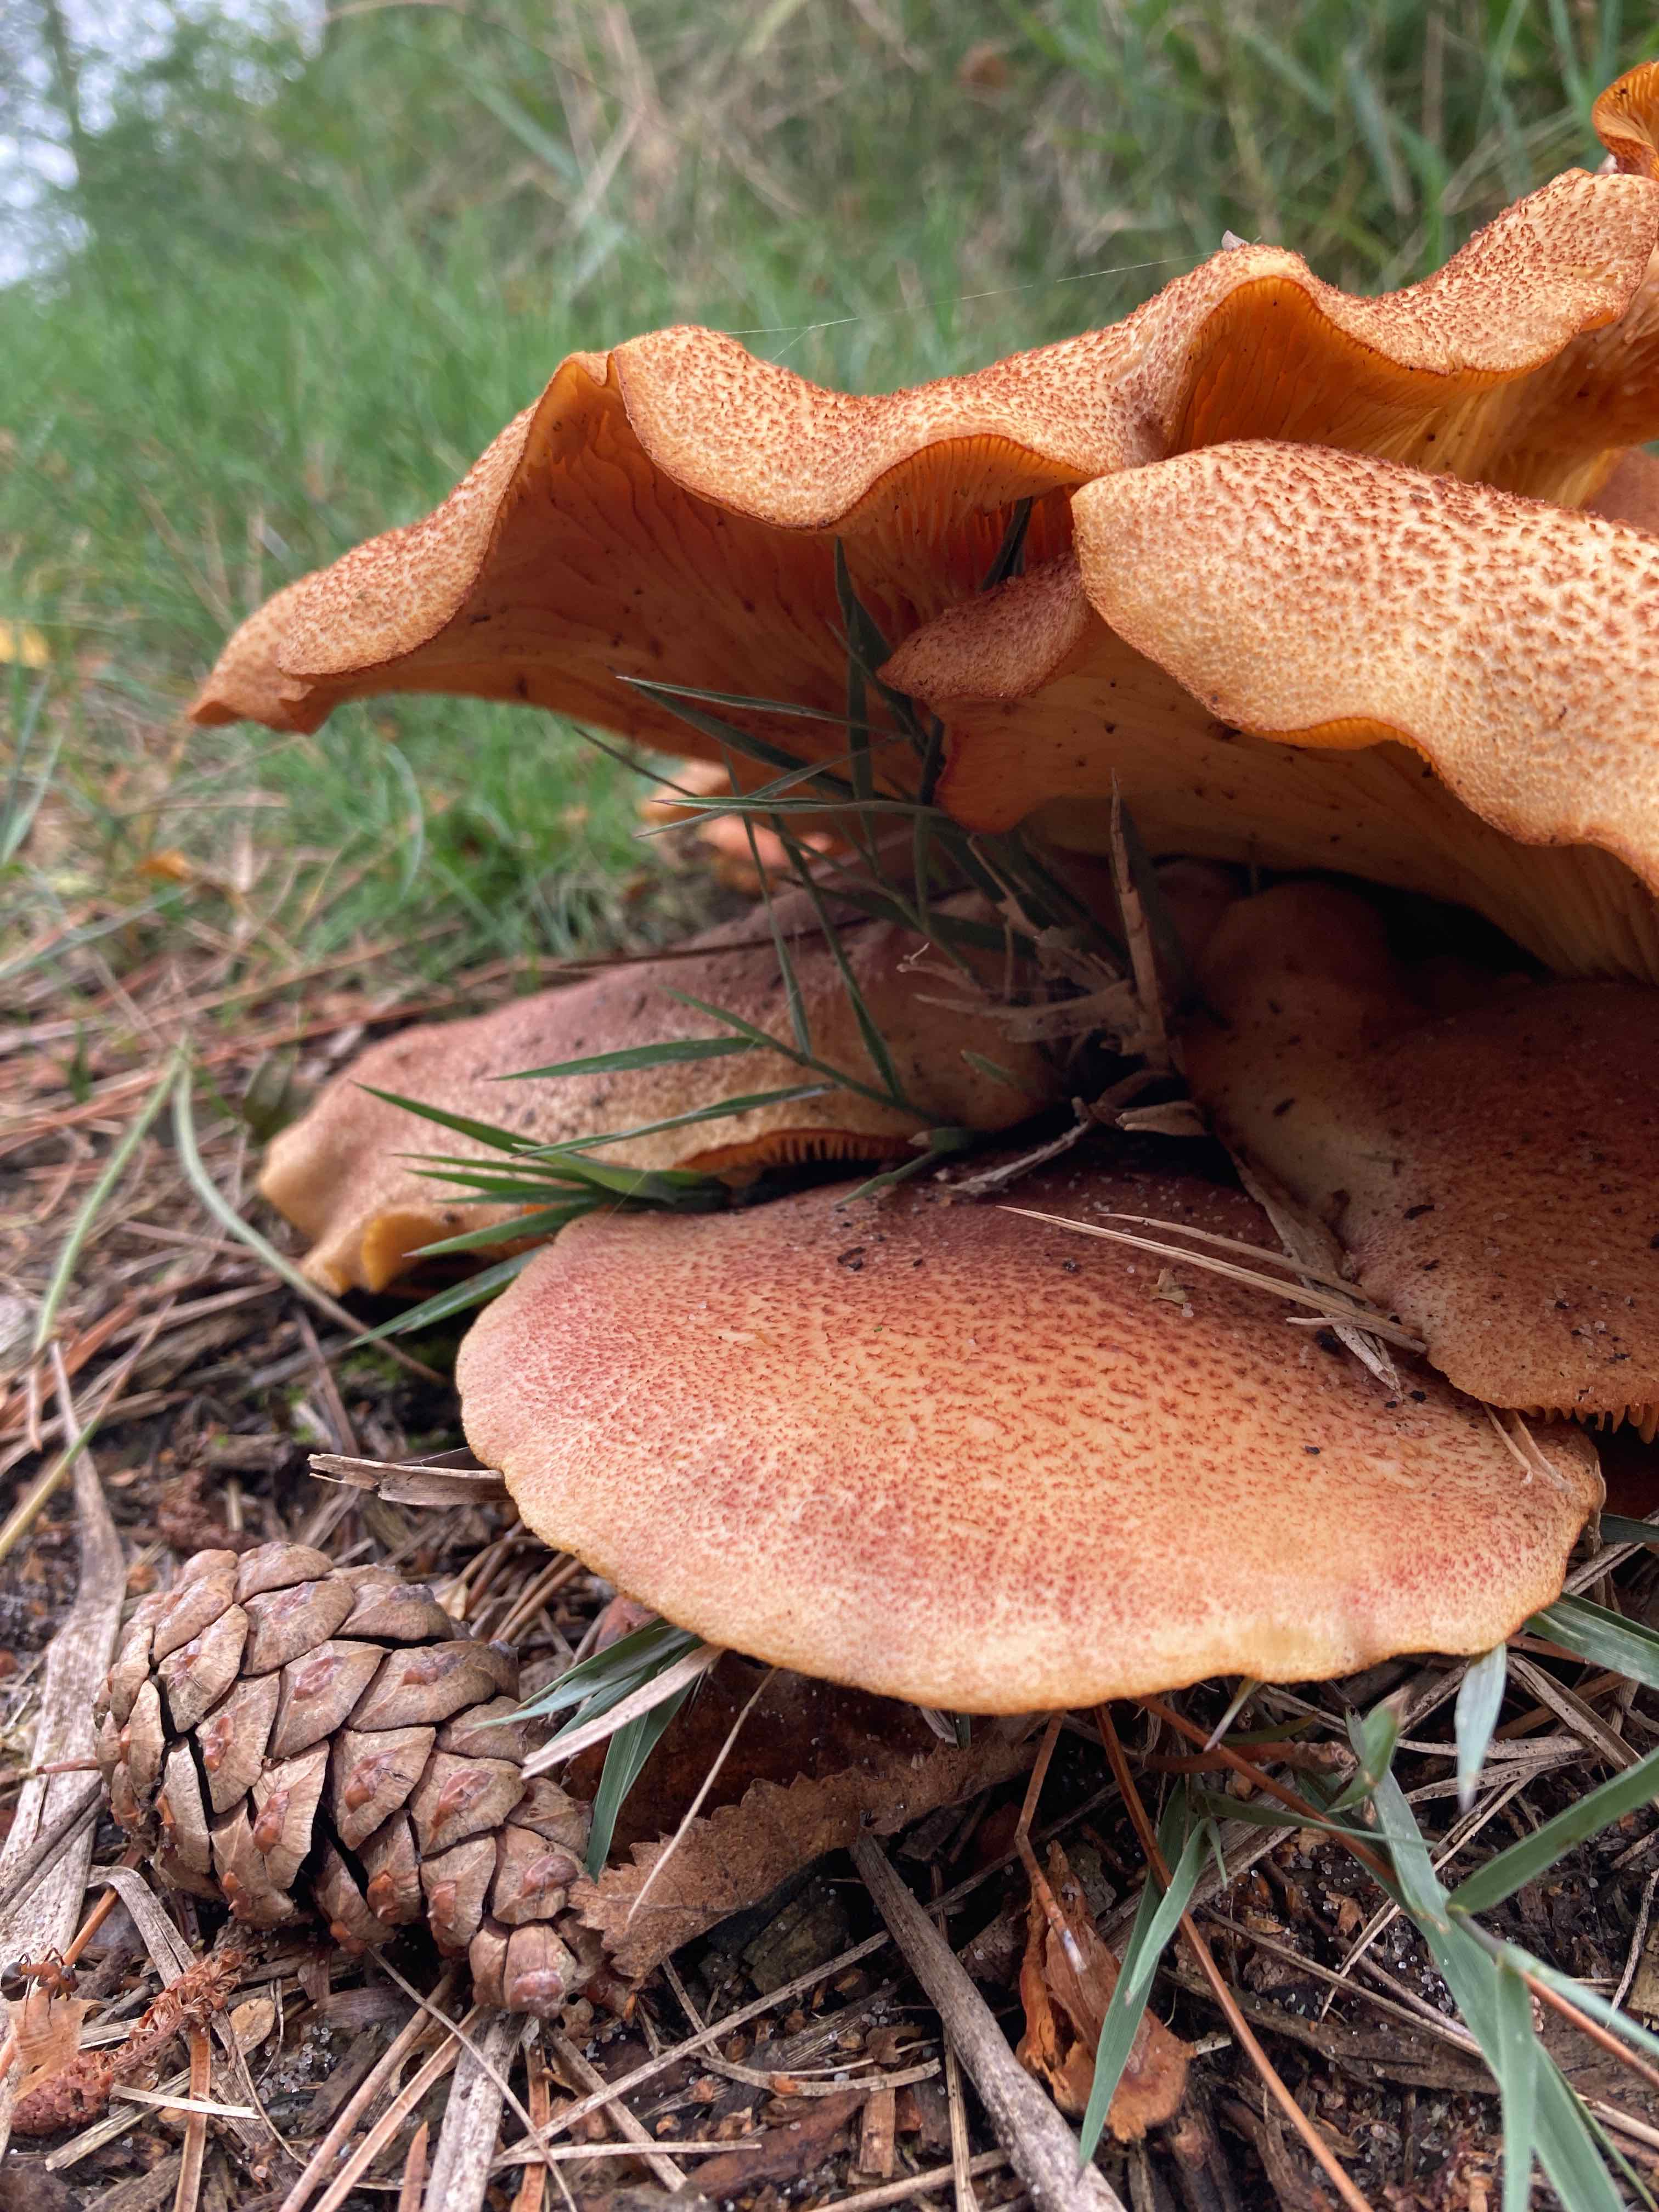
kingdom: Fungi
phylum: Basidiomycota
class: Agaricomycetes
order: Agaricales
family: Tricholomataceae
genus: Tricholomopsis
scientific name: Tricholomopsis rutilans
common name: purpur-væbnerhat
